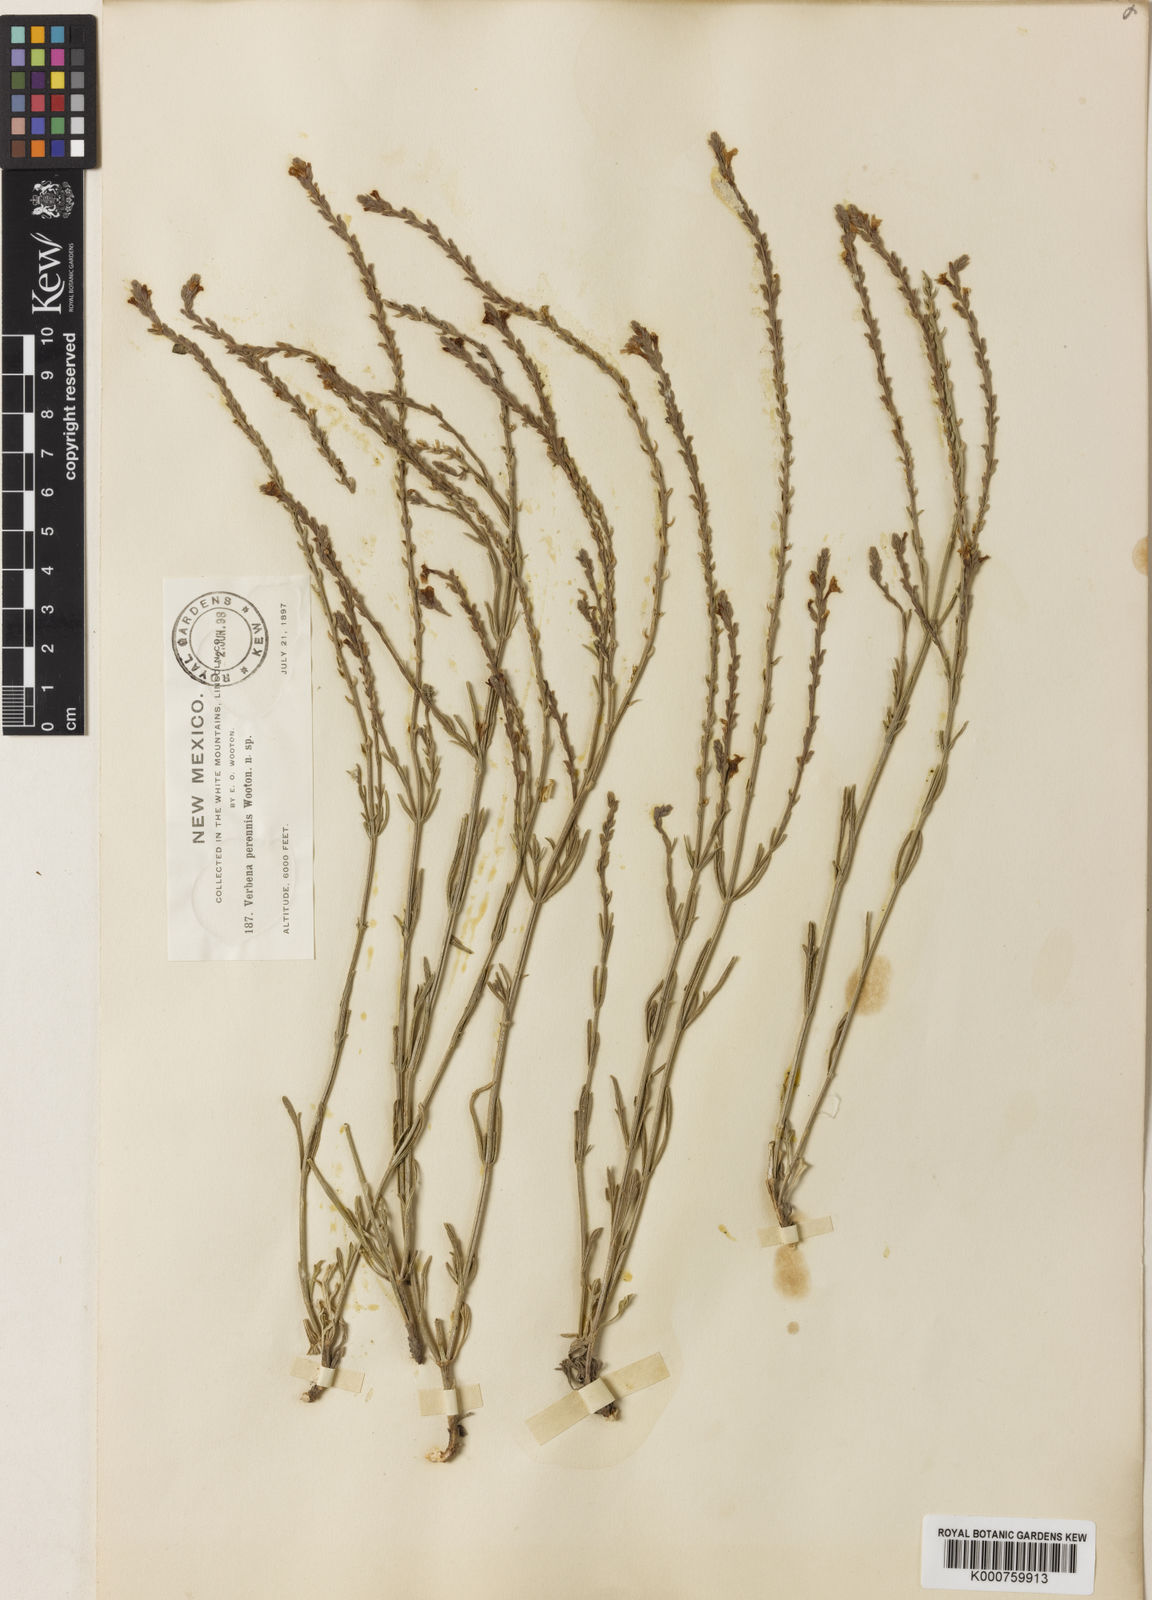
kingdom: Plantae
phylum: Tracheophyta
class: Magnoliopsida
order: Lamiales
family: Verbenaceae
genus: Verbena
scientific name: Verbena perennis
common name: Pin-leaf vervain
